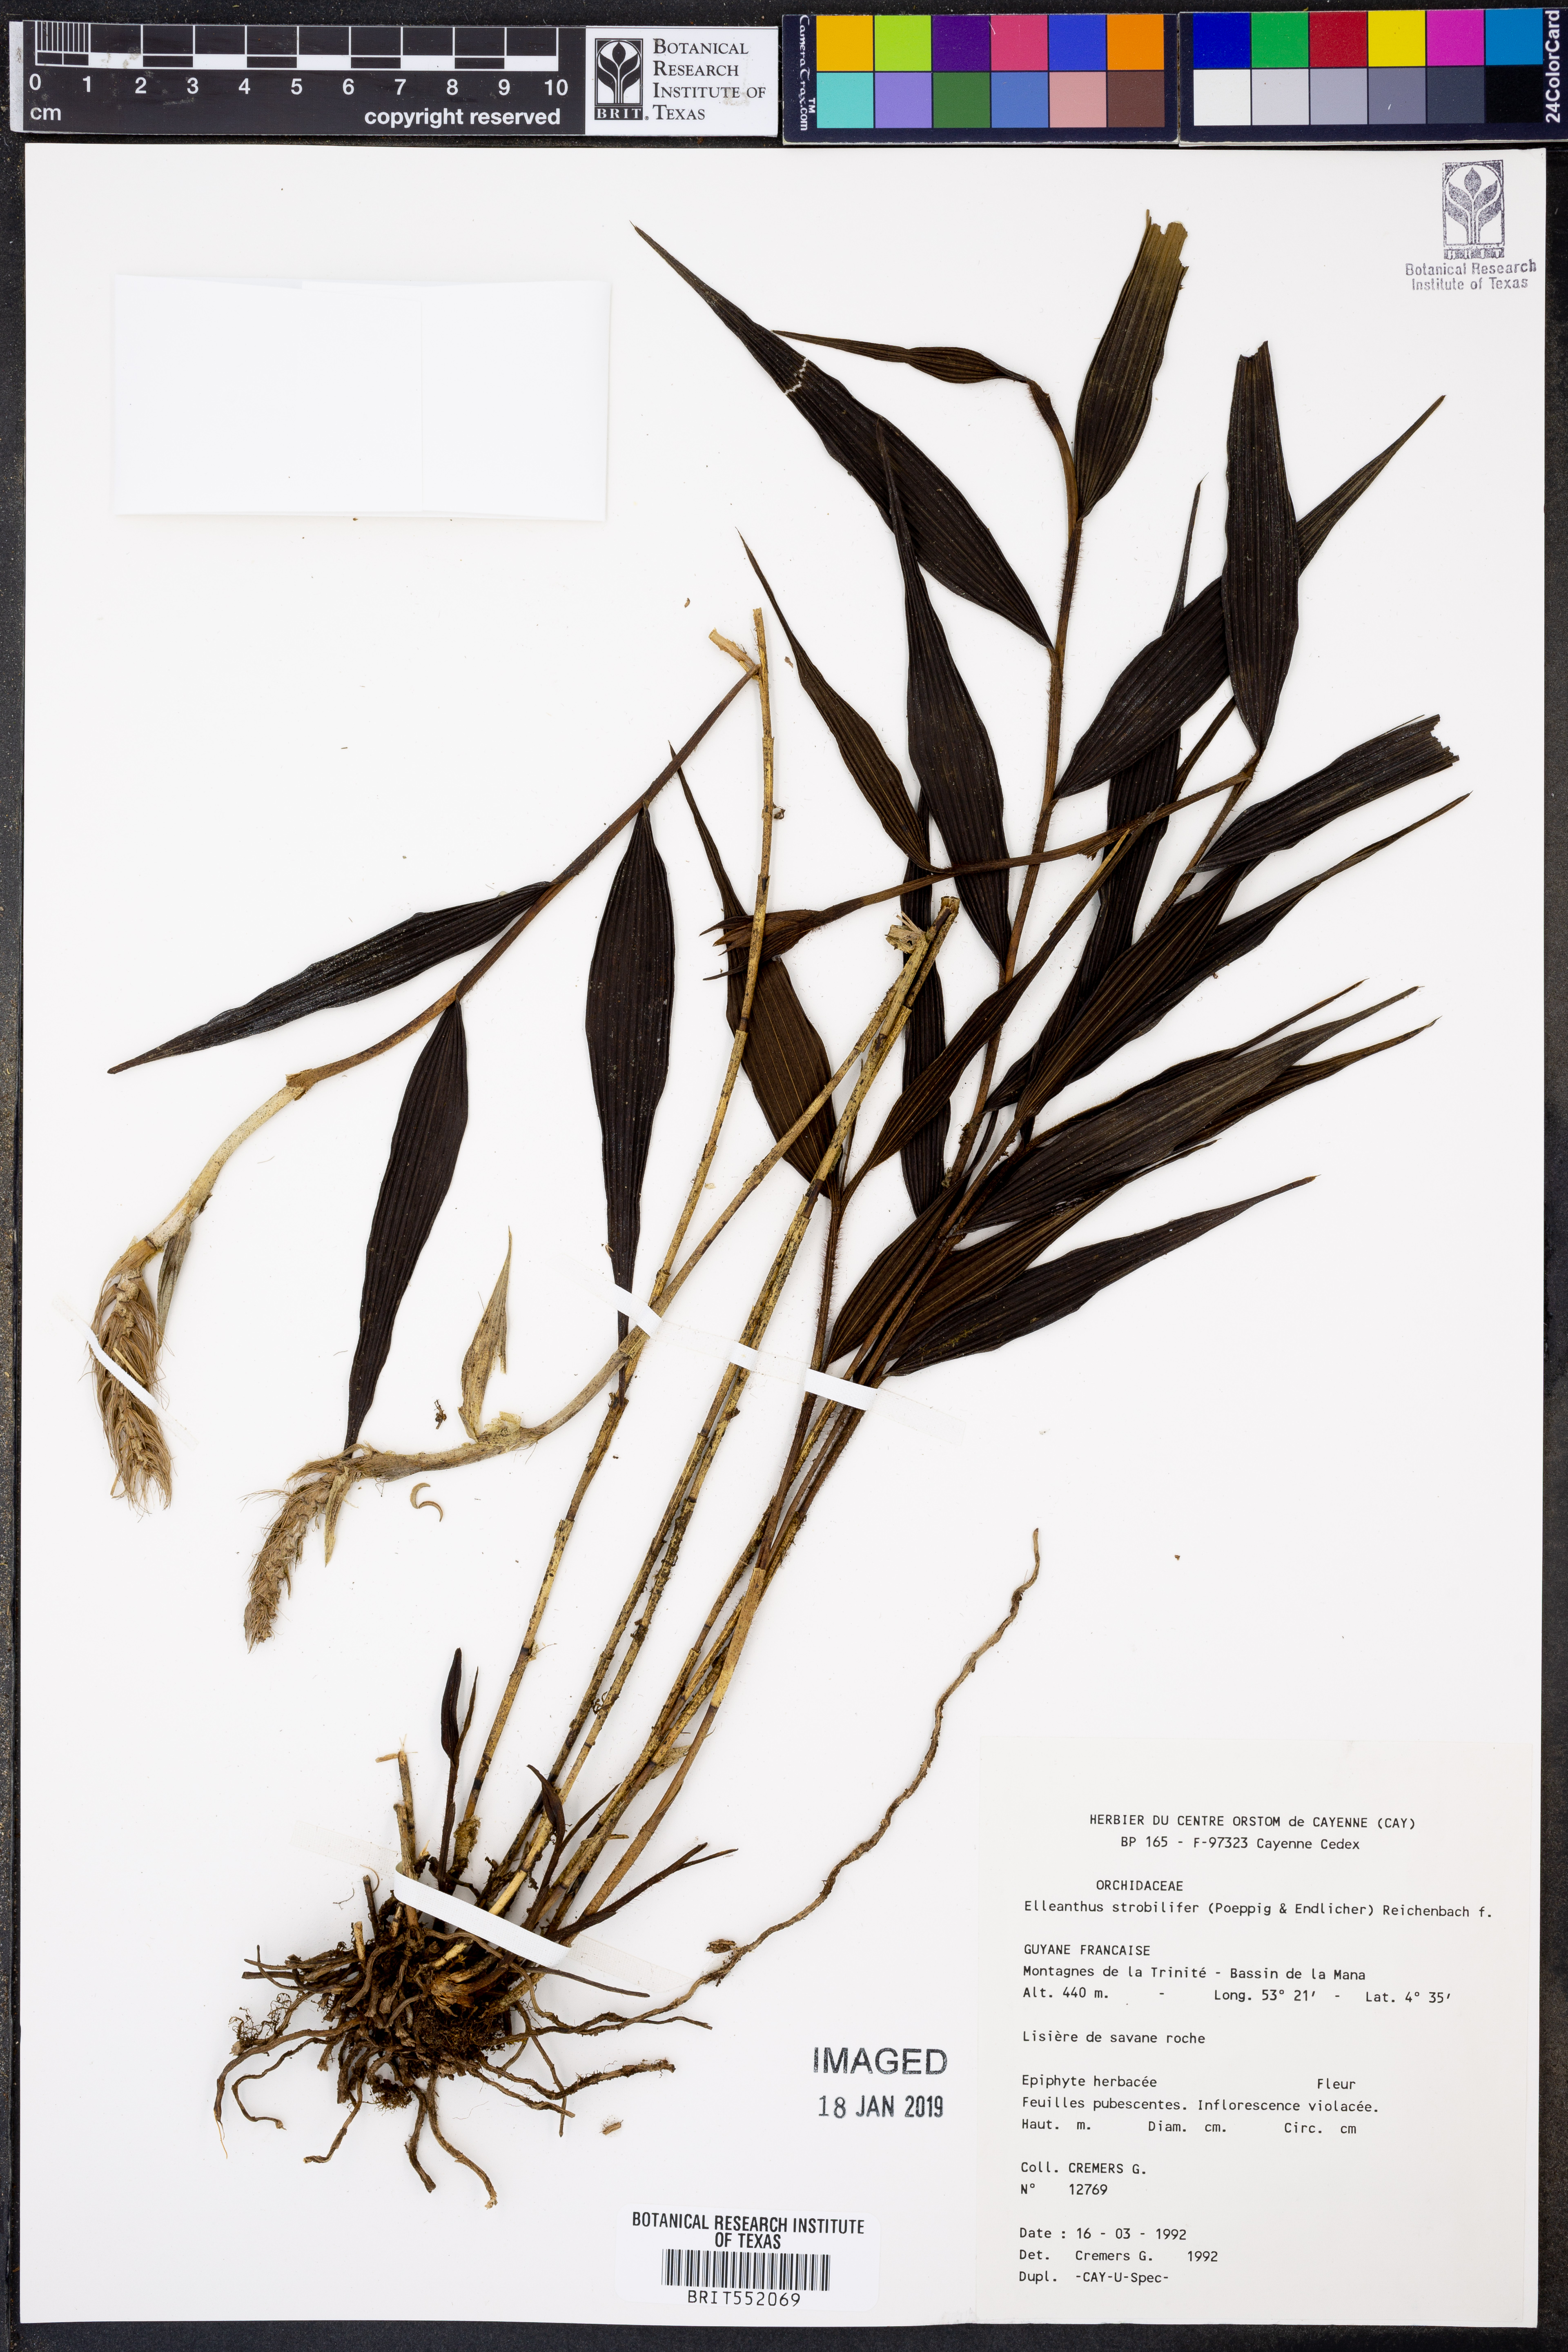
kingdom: Plantae
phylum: Tracheophyta
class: Liliopsida
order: Asparagales
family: Orchidaceae
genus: Elleanthus
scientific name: Elleanthus strobilifer
